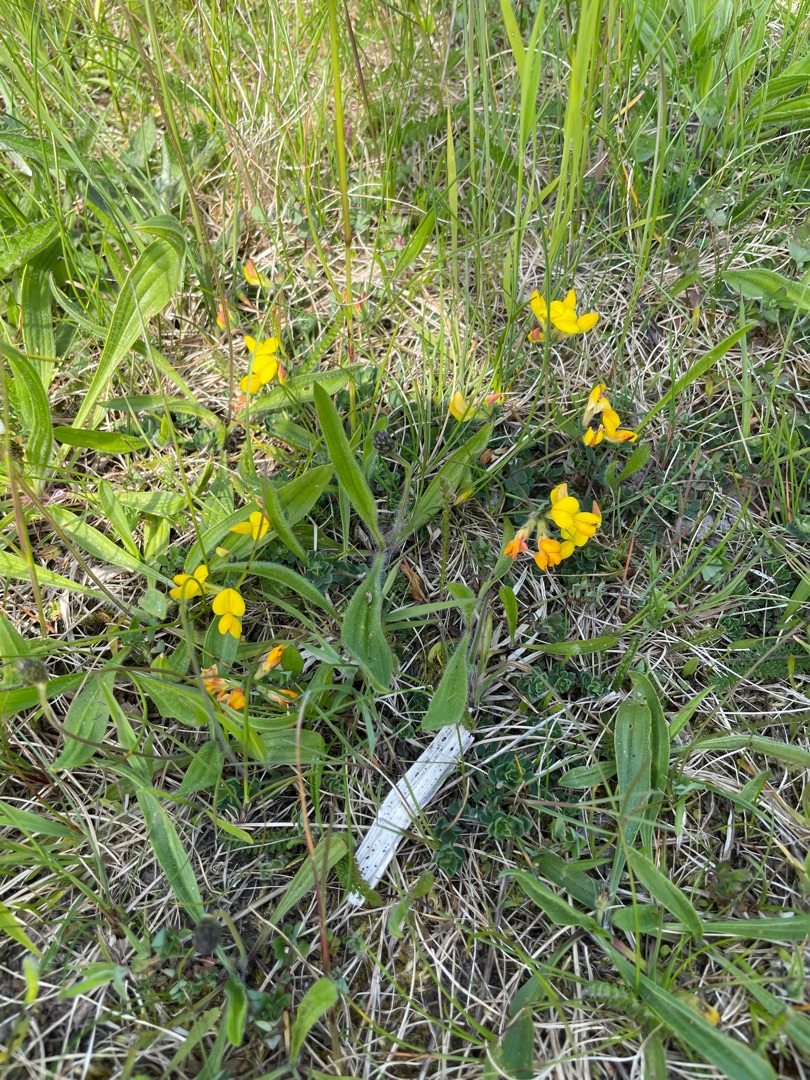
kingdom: Plantae
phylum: Tracheophyta
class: Magnoliopsida
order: Fabales
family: Fabaceae
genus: Lotus
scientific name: Lotus corniculatus
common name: Almindelig kællingetand
